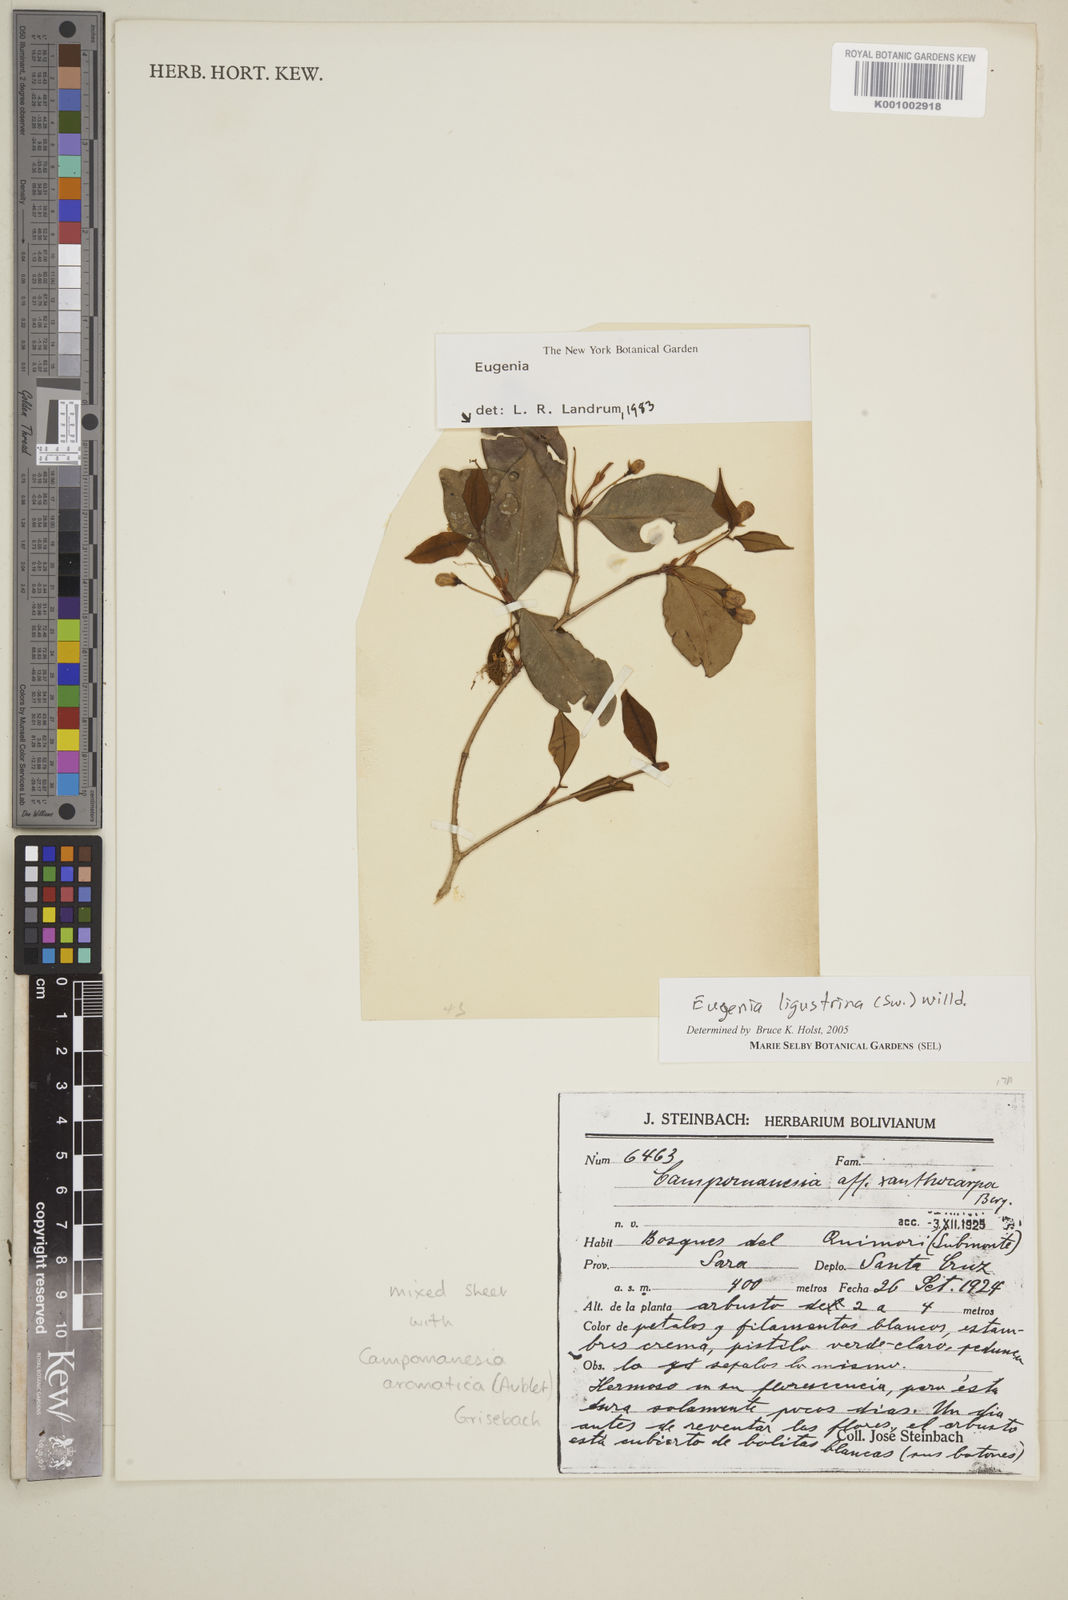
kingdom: Plantae
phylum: Tracheophyta
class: Magnoliopsida
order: Myrtales
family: Myrtaceae
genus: Eugenia
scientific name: Eugenia ligustrina
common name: Privet stopper
